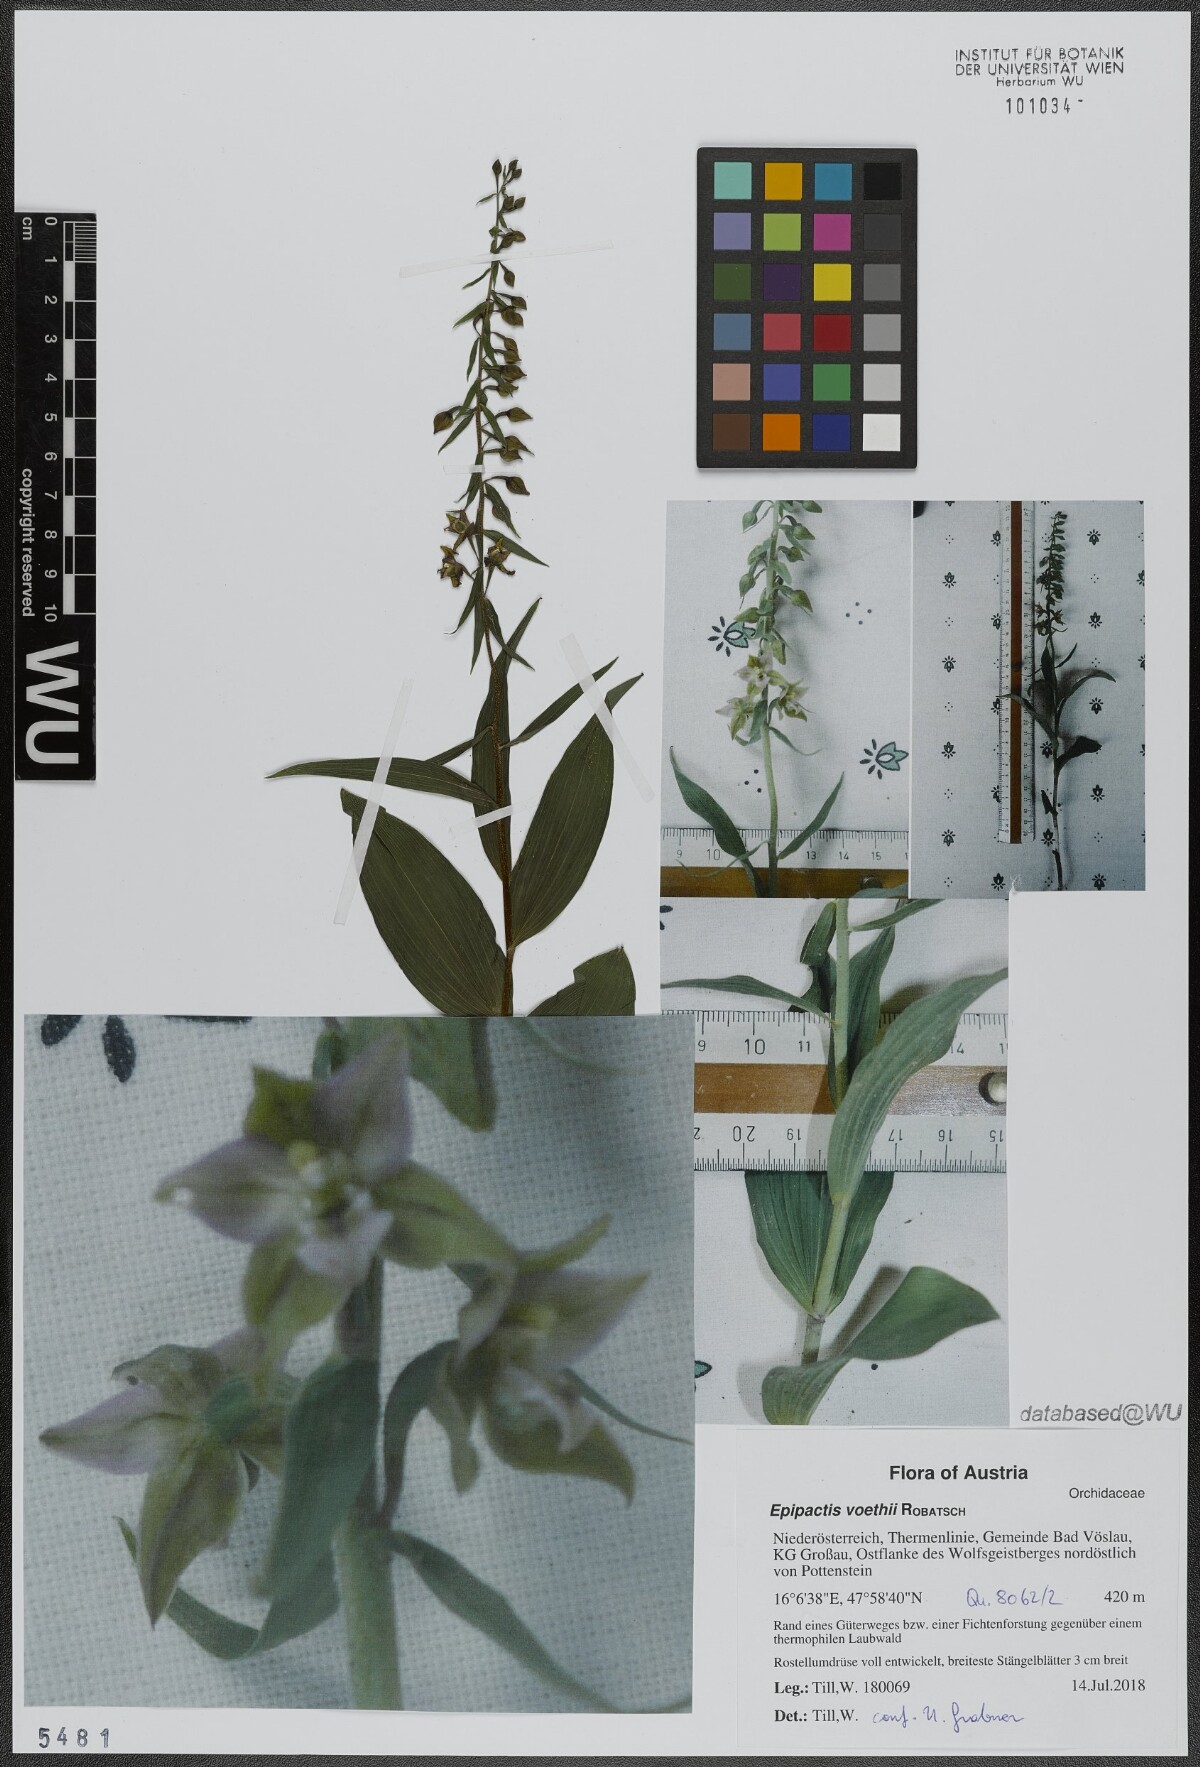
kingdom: Plantae
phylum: Tracheophyta
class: Liliopsida
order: Asparagales
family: Orchidaceae
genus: Epipactis
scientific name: Epipactis leptochila
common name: Narrow-lipped helleborine
